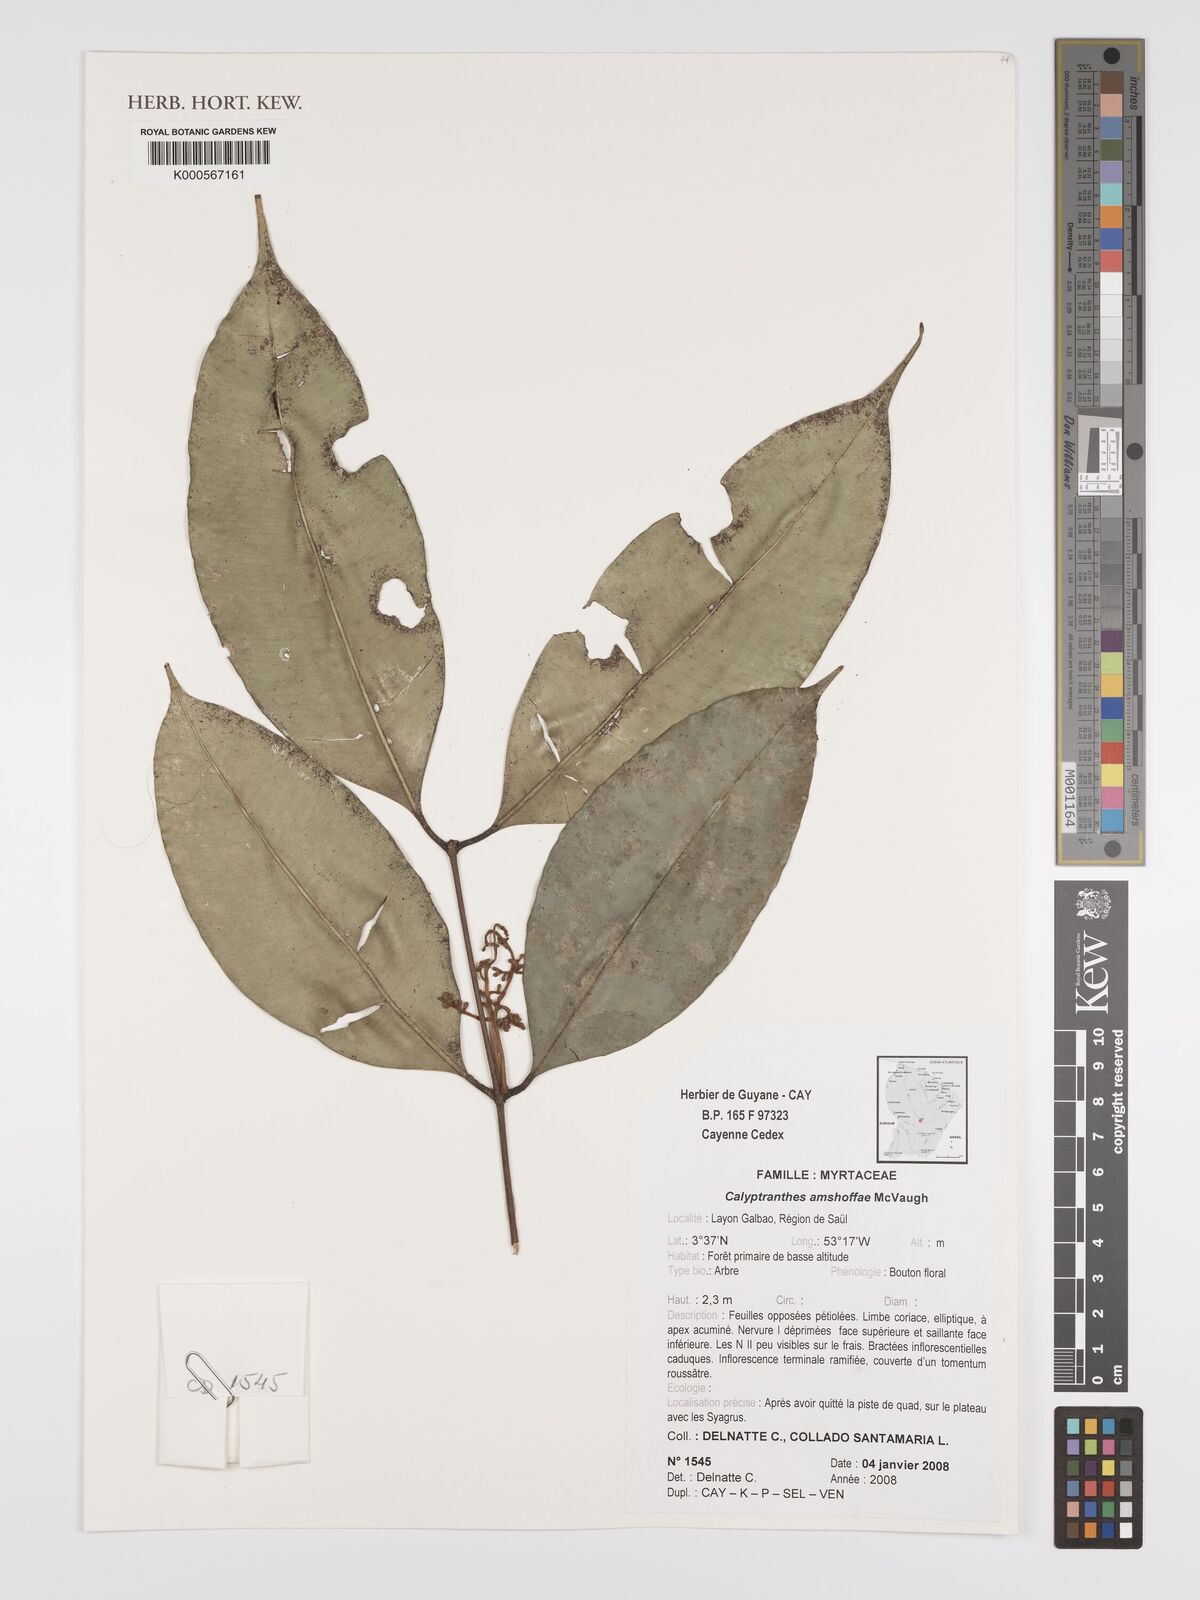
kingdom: Plantae
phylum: Tracheophyta
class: Magnoliopsida
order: Myrtales
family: Myrtaceae
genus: Myrcia
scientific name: Myrcia amshoffae
